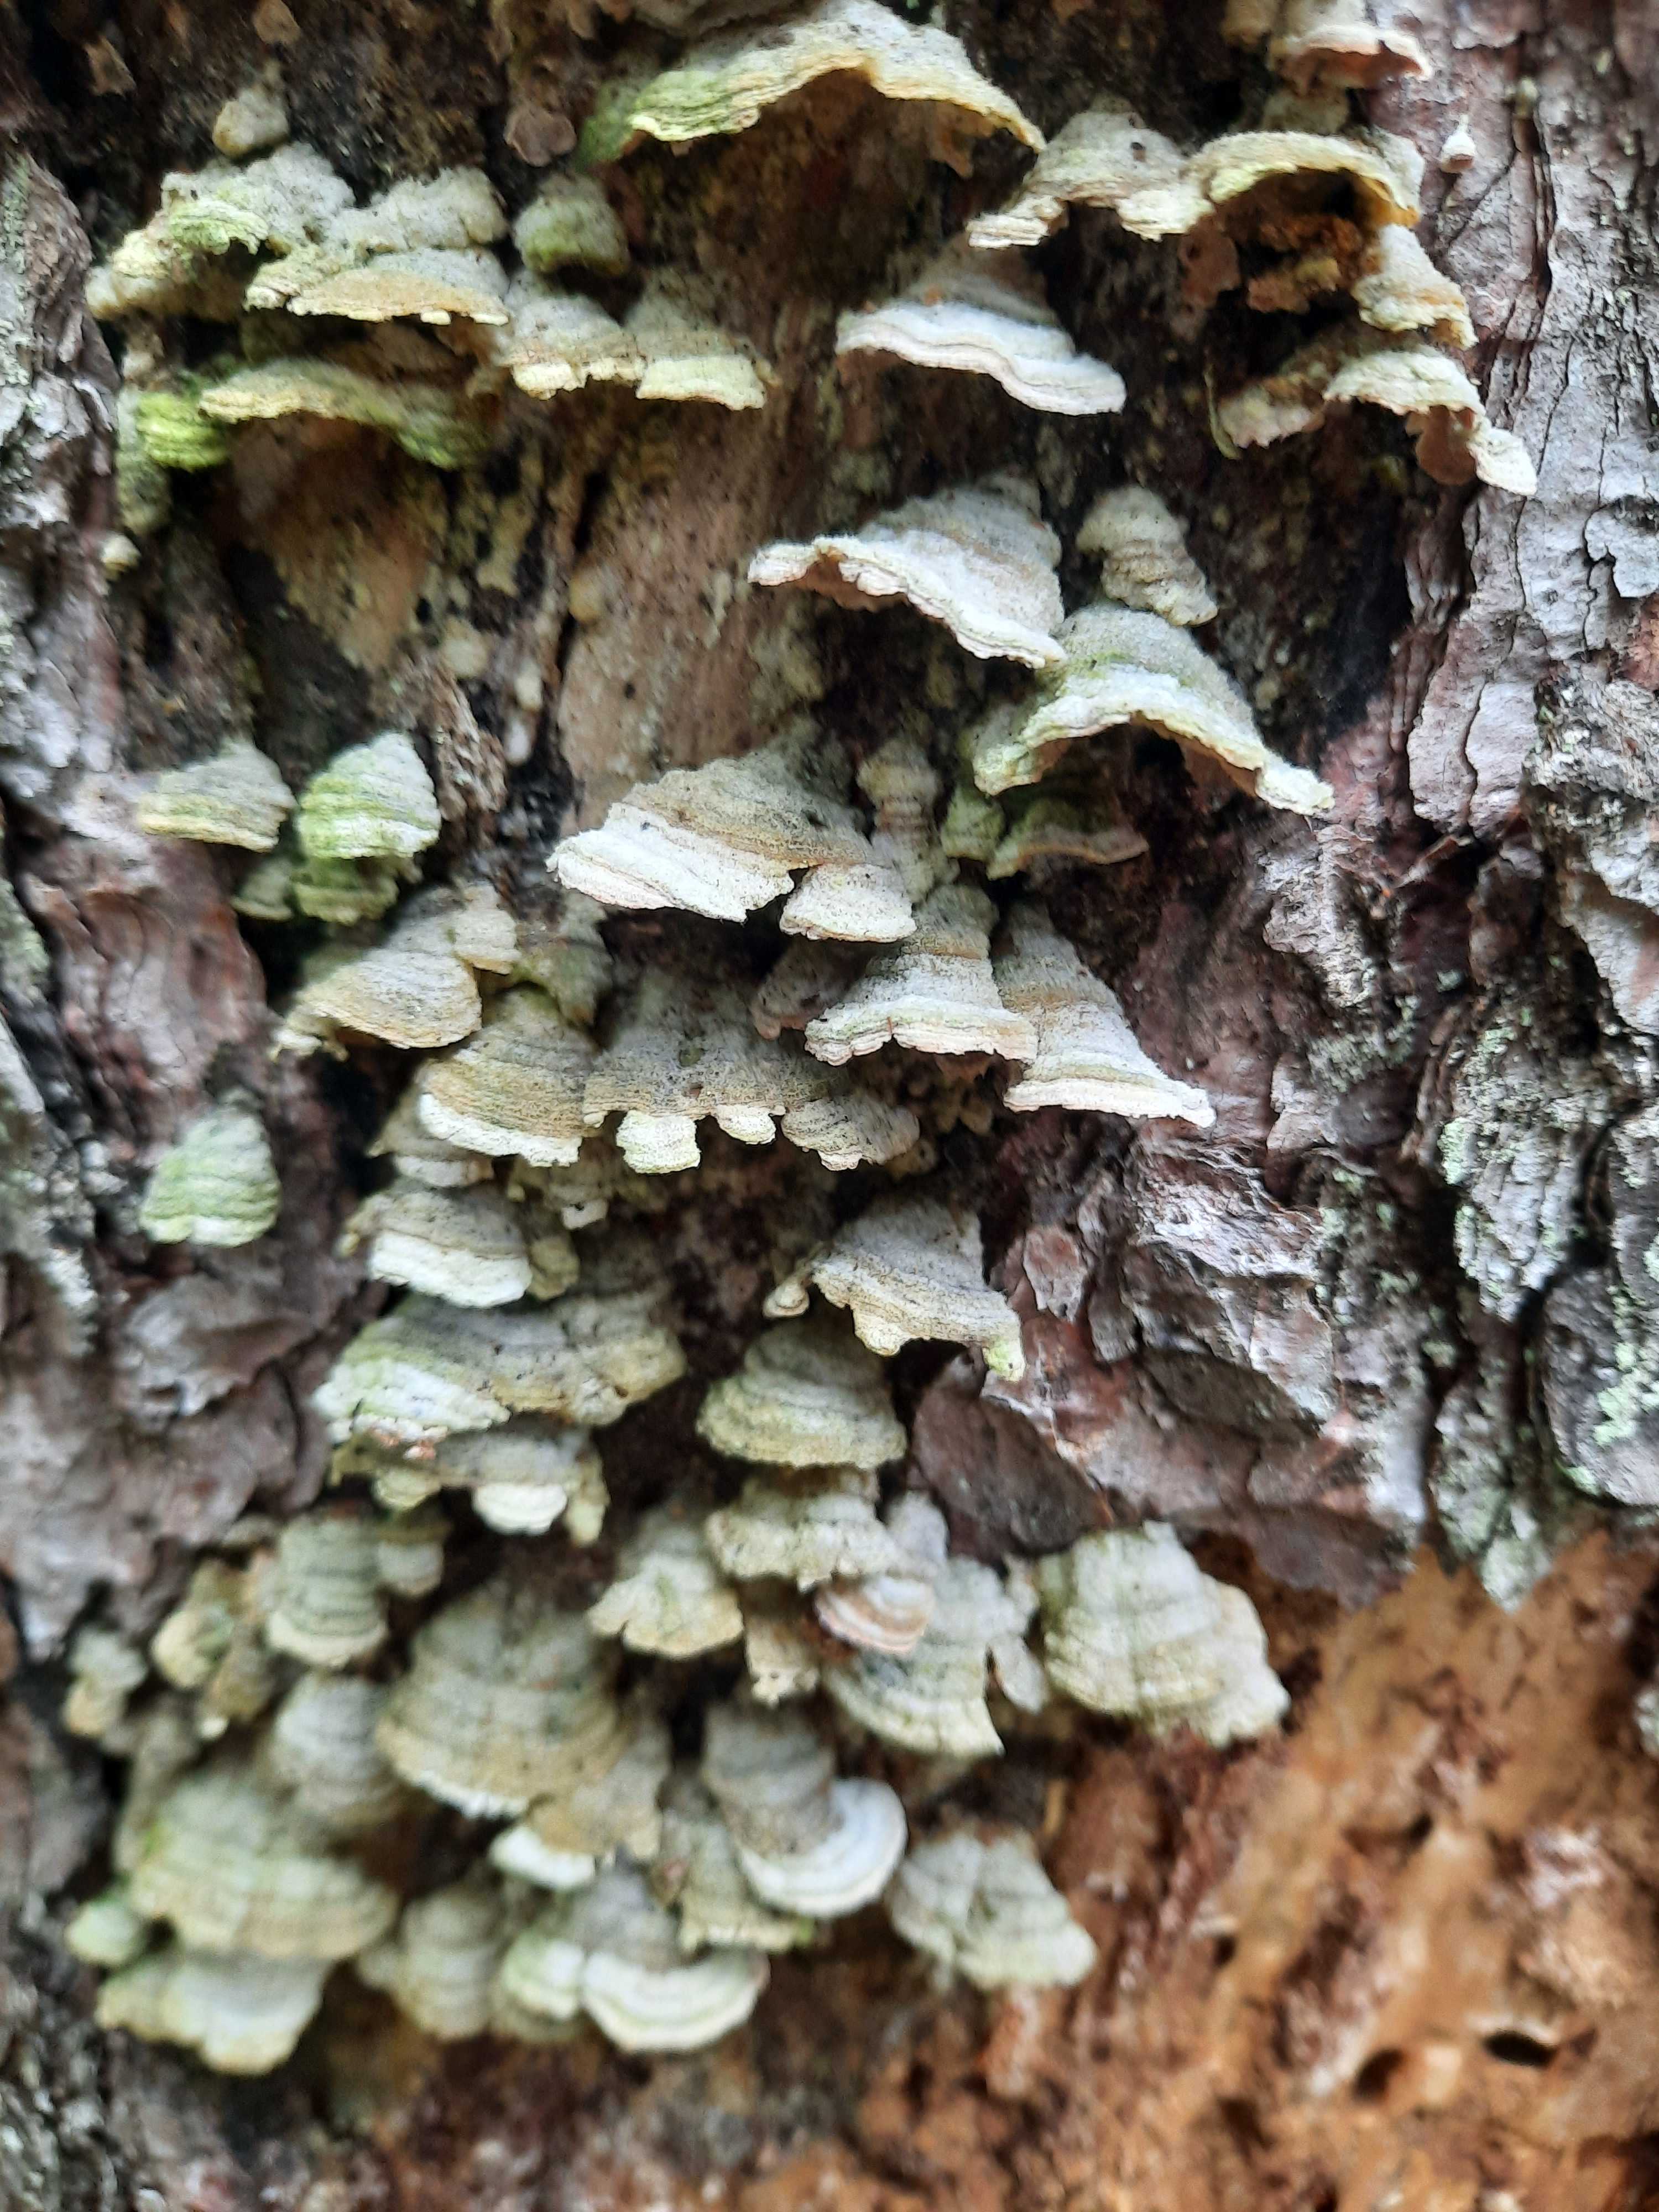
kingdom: Fungi
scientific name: Fungi
